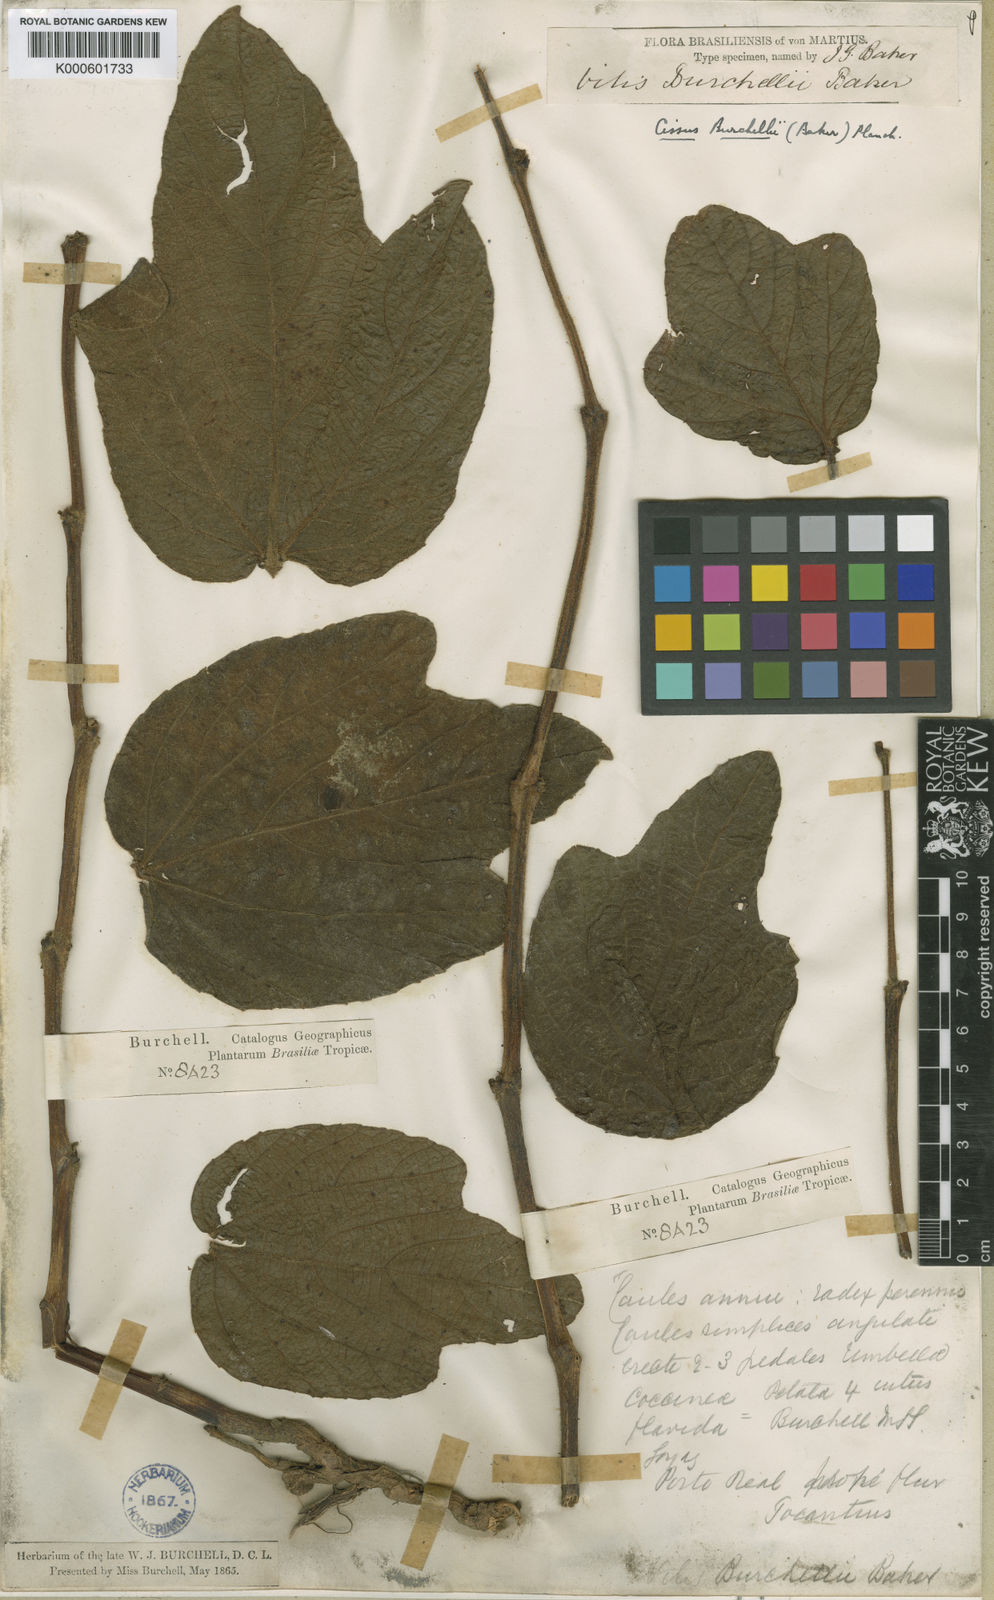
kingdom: Plantae
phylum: Tracheophyta
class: Magnoliopsida
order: Vitales
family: Vitaceae
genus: Cissus
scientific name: Cissus erosa
